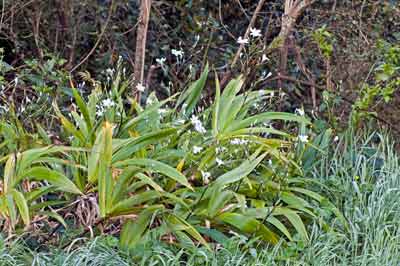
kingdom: Plantae
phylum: Tracheophyta
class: Liliopsida
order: Asparagales
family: Iridaceae
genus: Iris
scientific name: Iris confusa
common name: Flat bamboo-orchid
